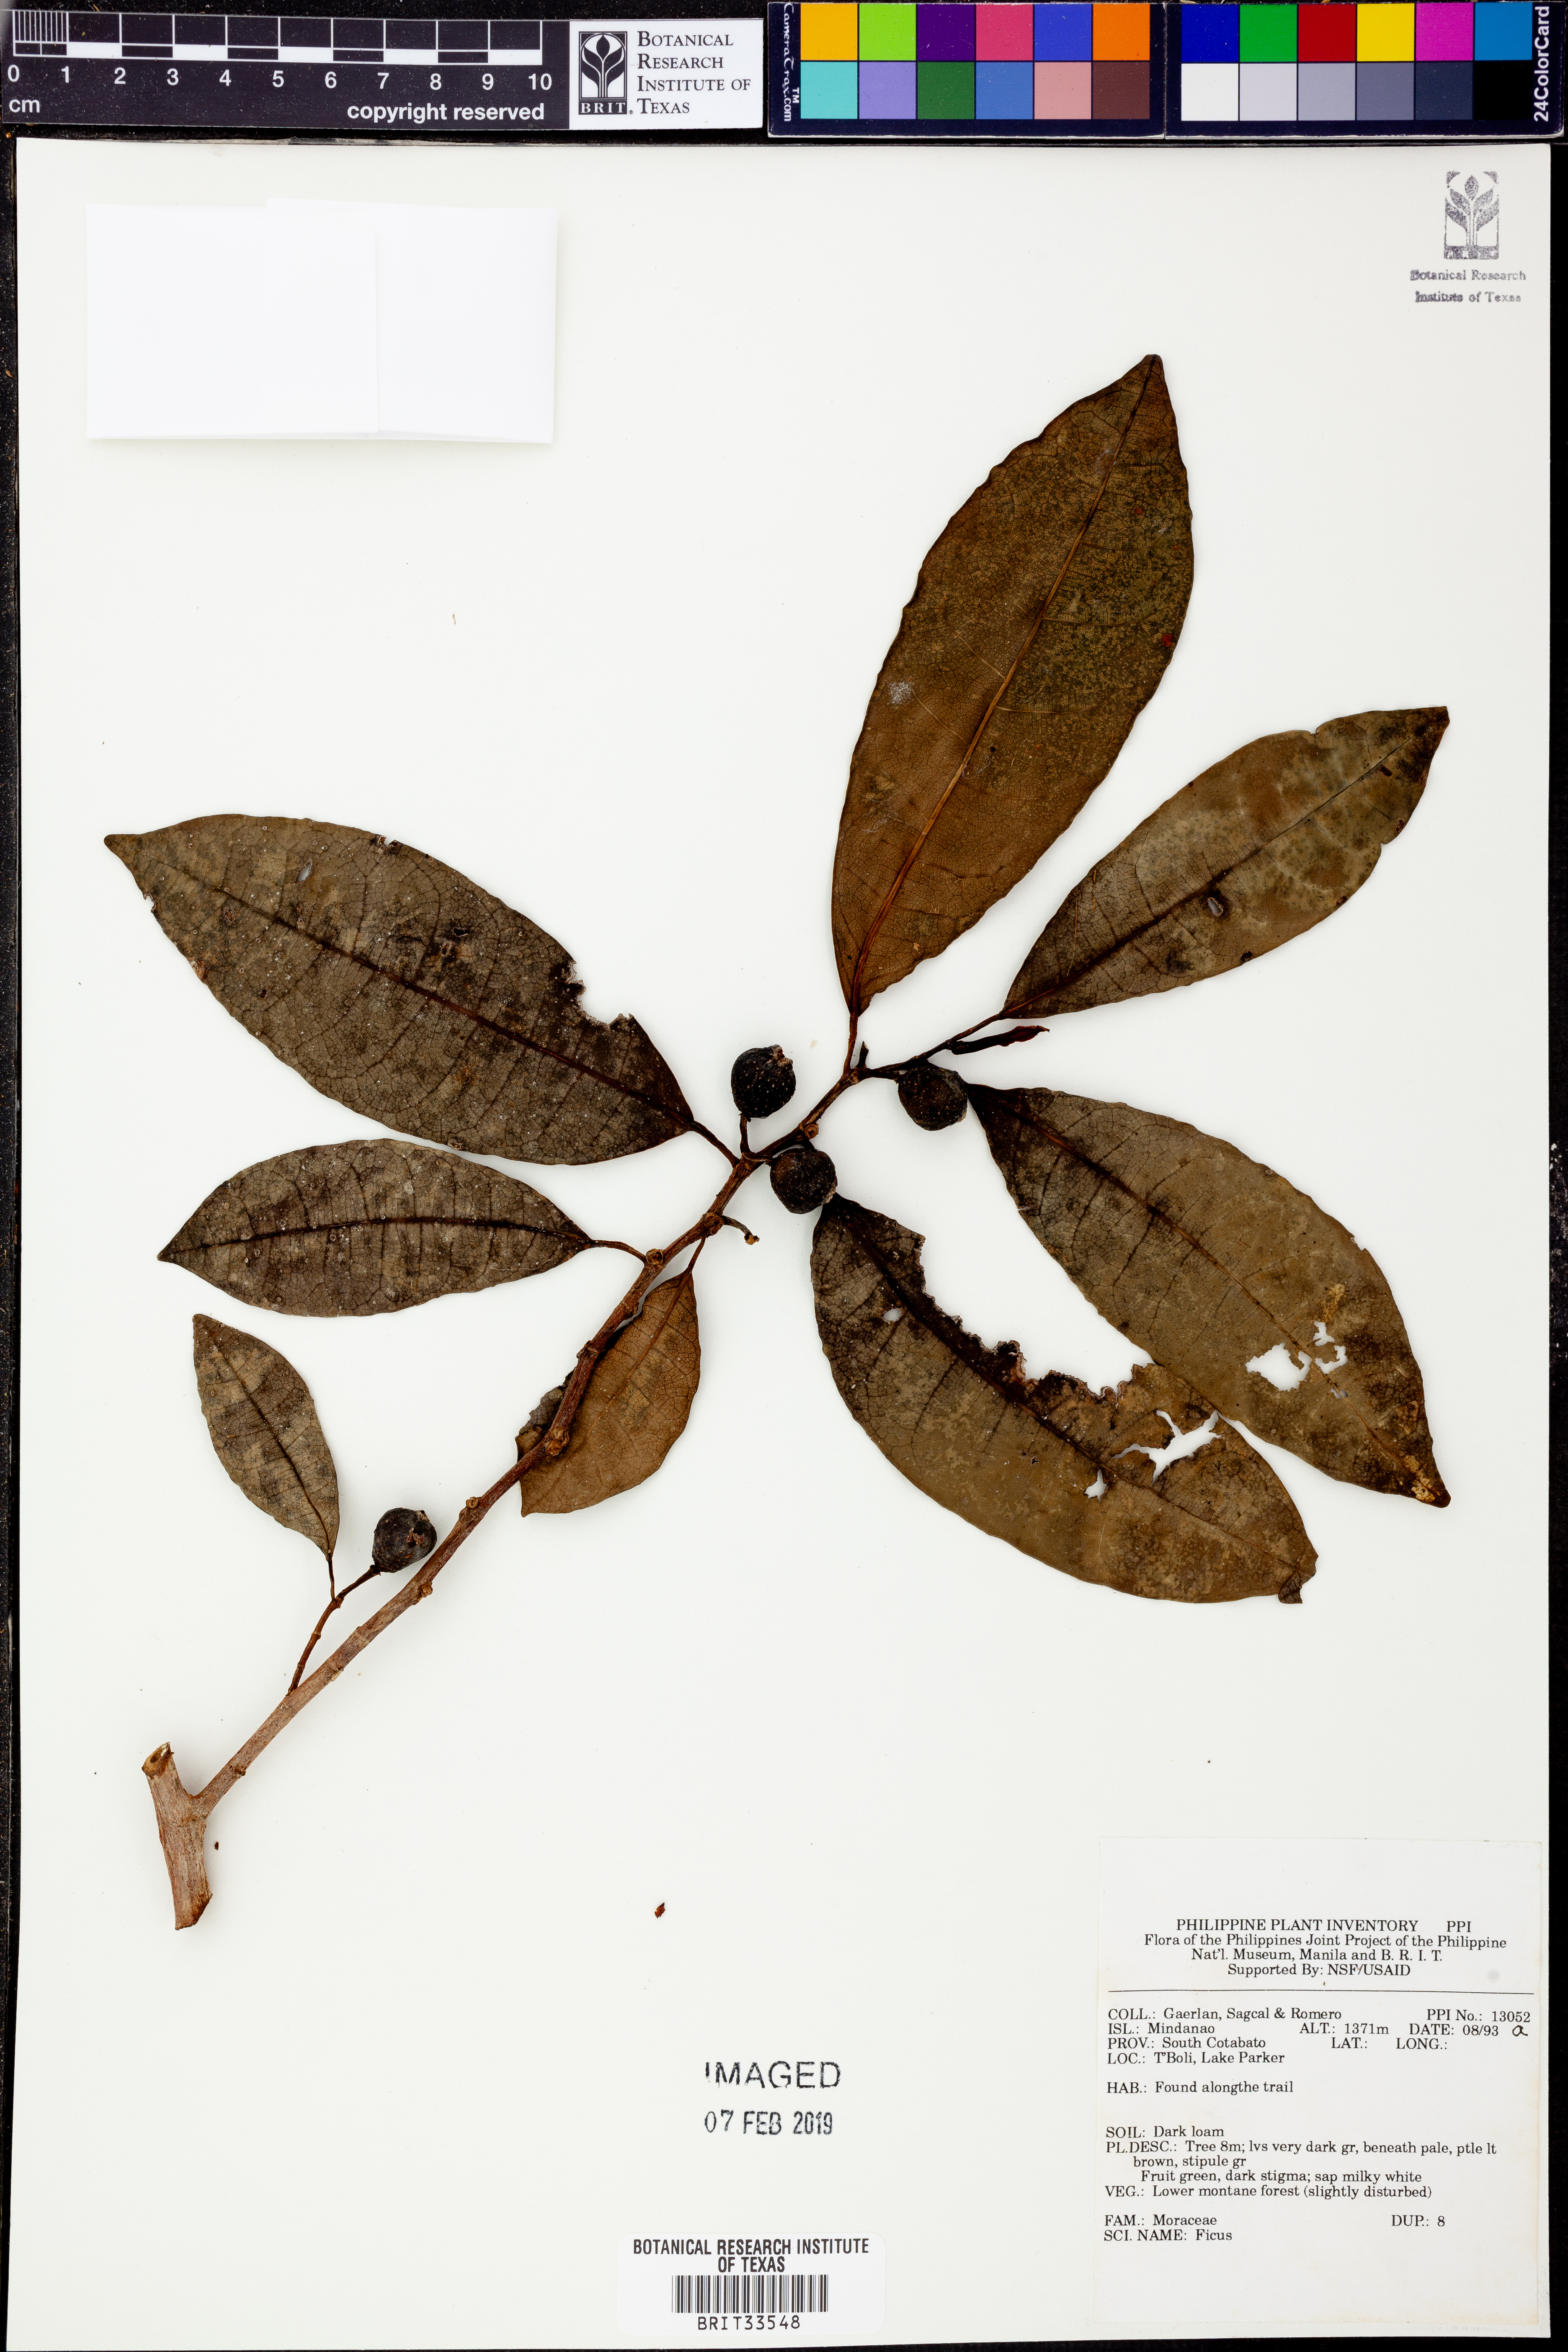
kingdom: Plantae
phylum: Tracheophyta
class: Magnoliopsida
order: Rosales
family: Moraceae
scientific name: Moraceae
